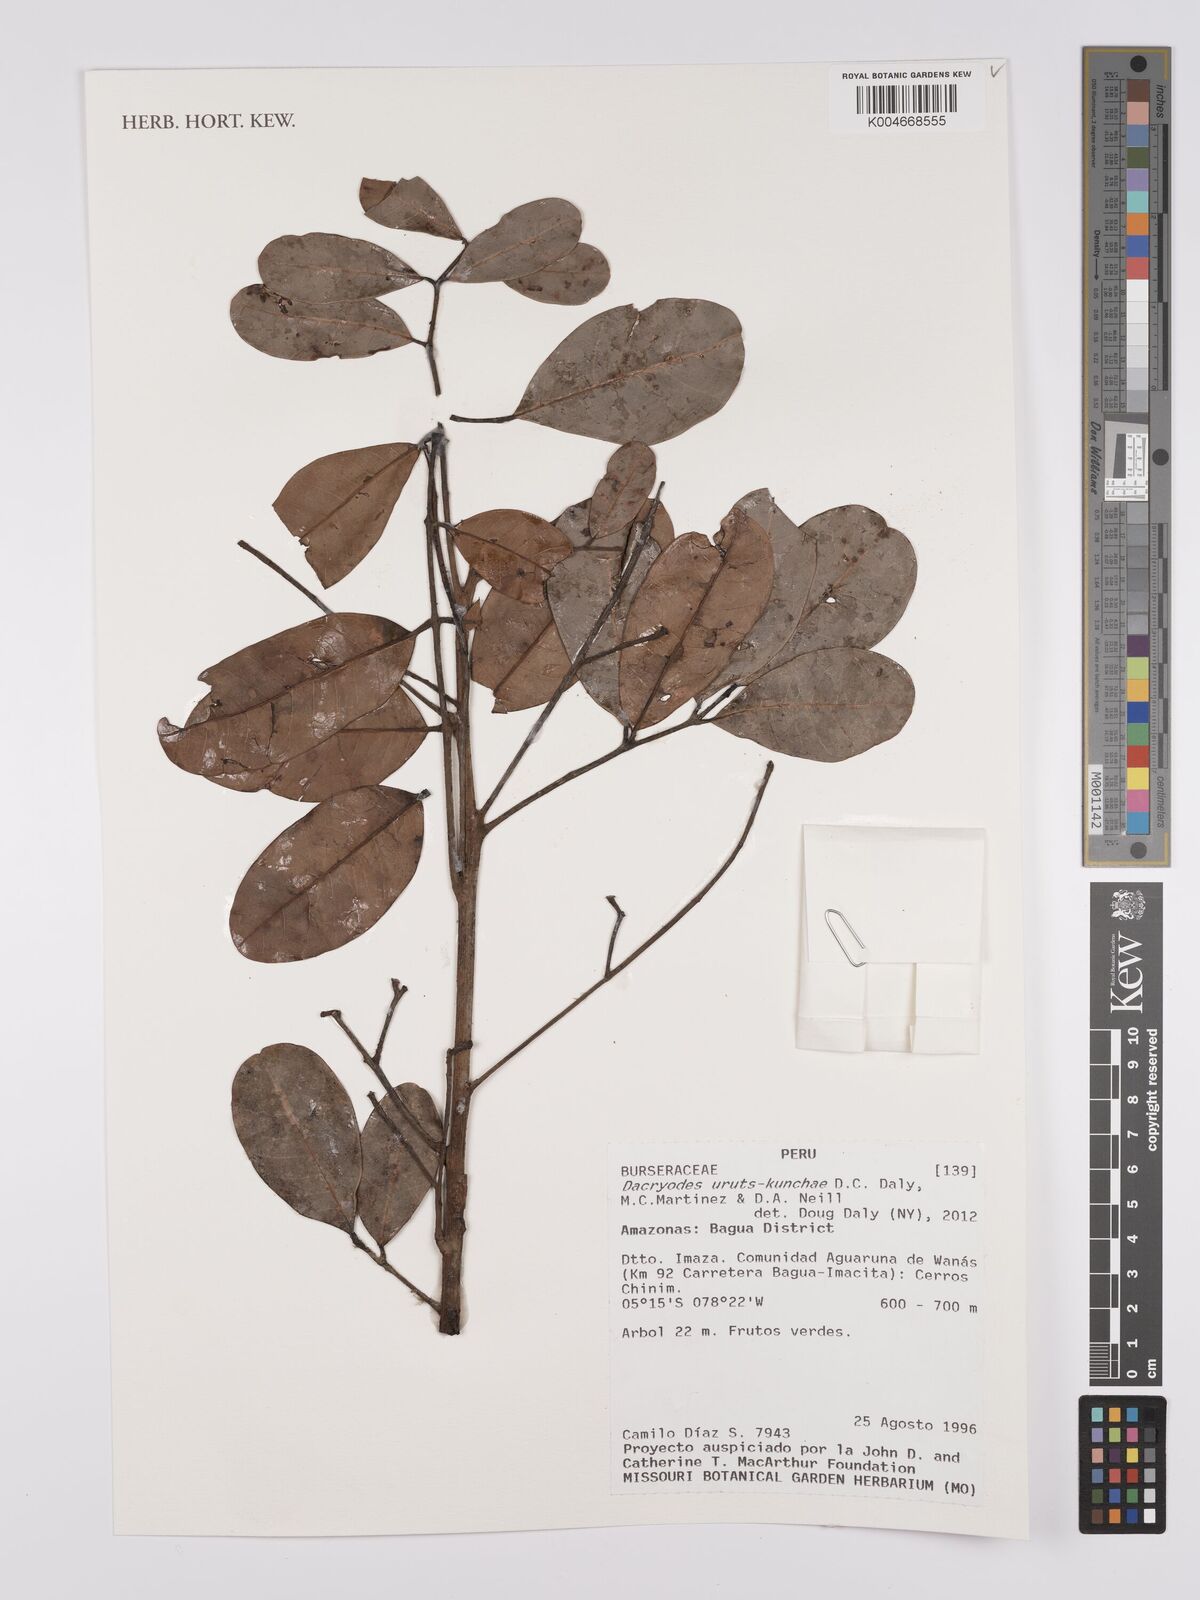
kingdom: Plantae
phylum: Tracheophyta
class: Magnoliopsida
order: Sapindales
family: Burseraceae
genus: Dacryodes
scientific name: Dacryodes uruts-kunchae
